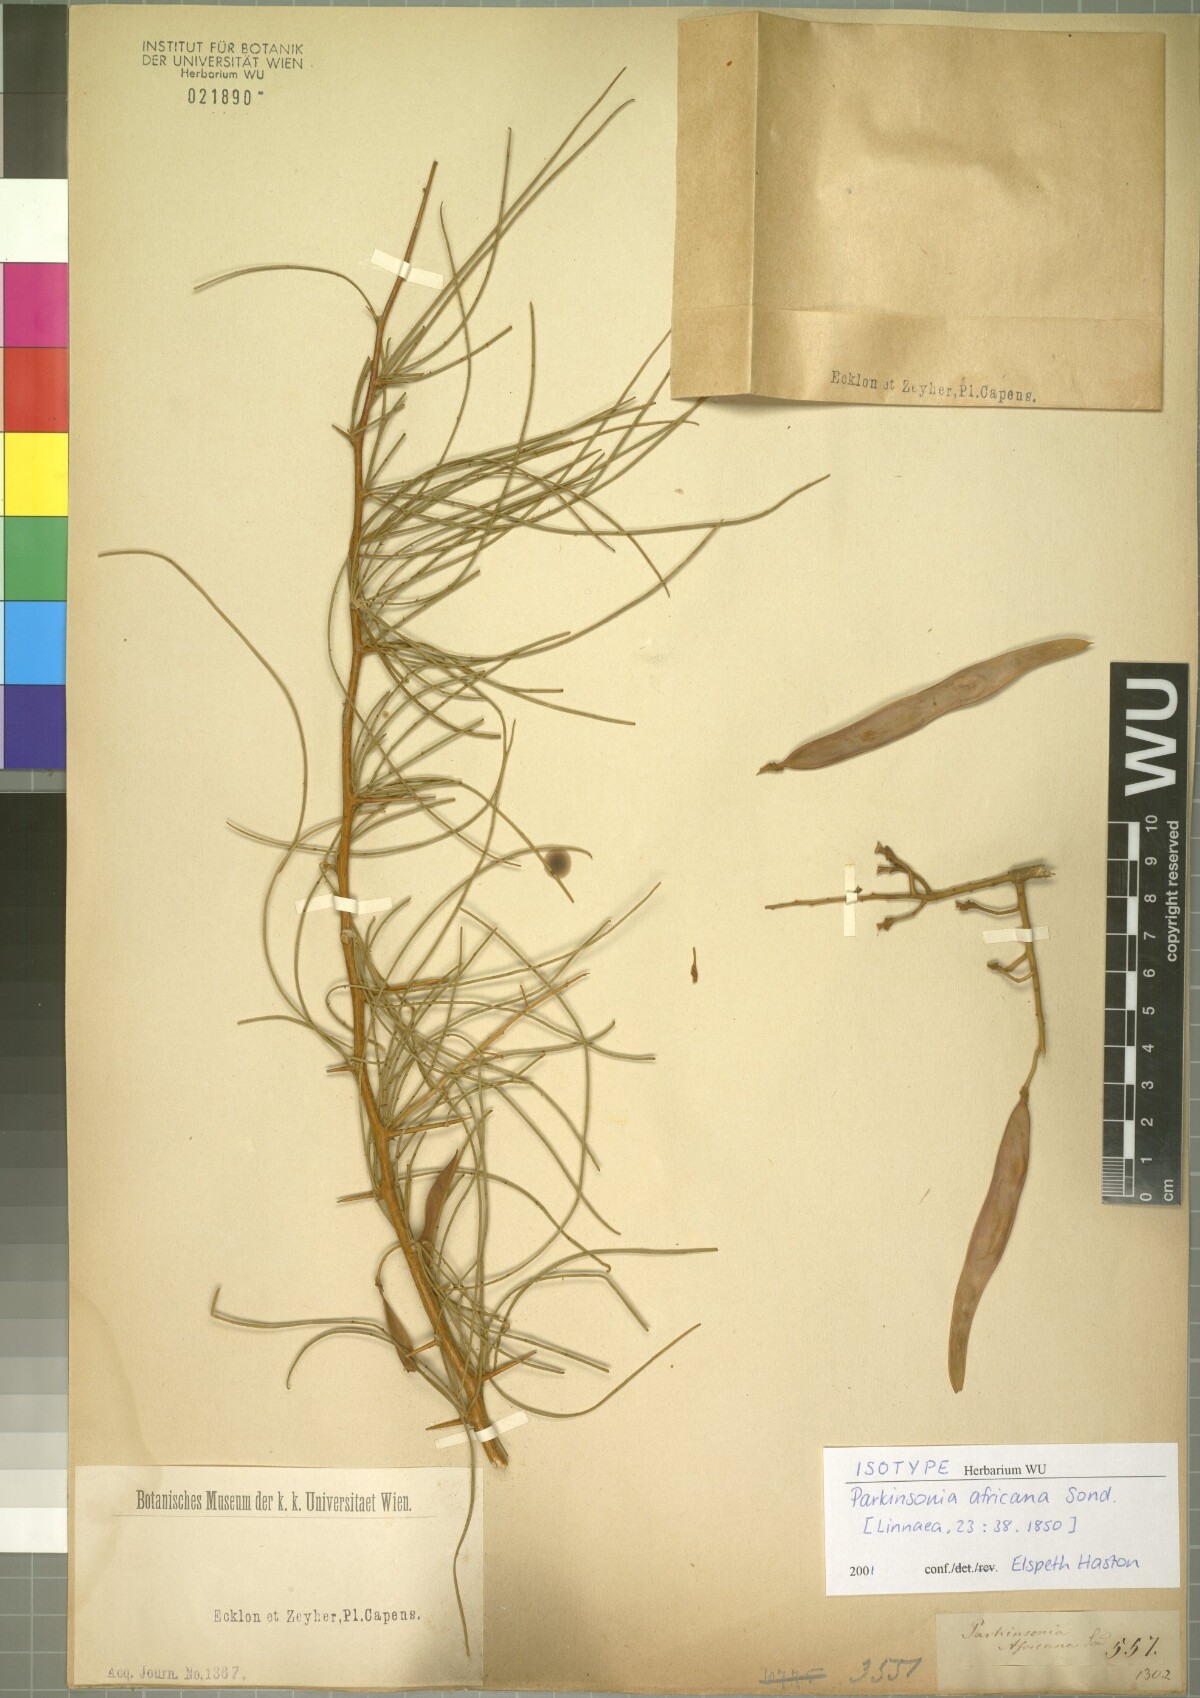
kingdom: Plantae
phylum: Tracheophyta
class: Magnoliopsida
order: Fabales
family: Fabaceae
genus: Parkinsonia
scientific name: Parkinsonia africana
